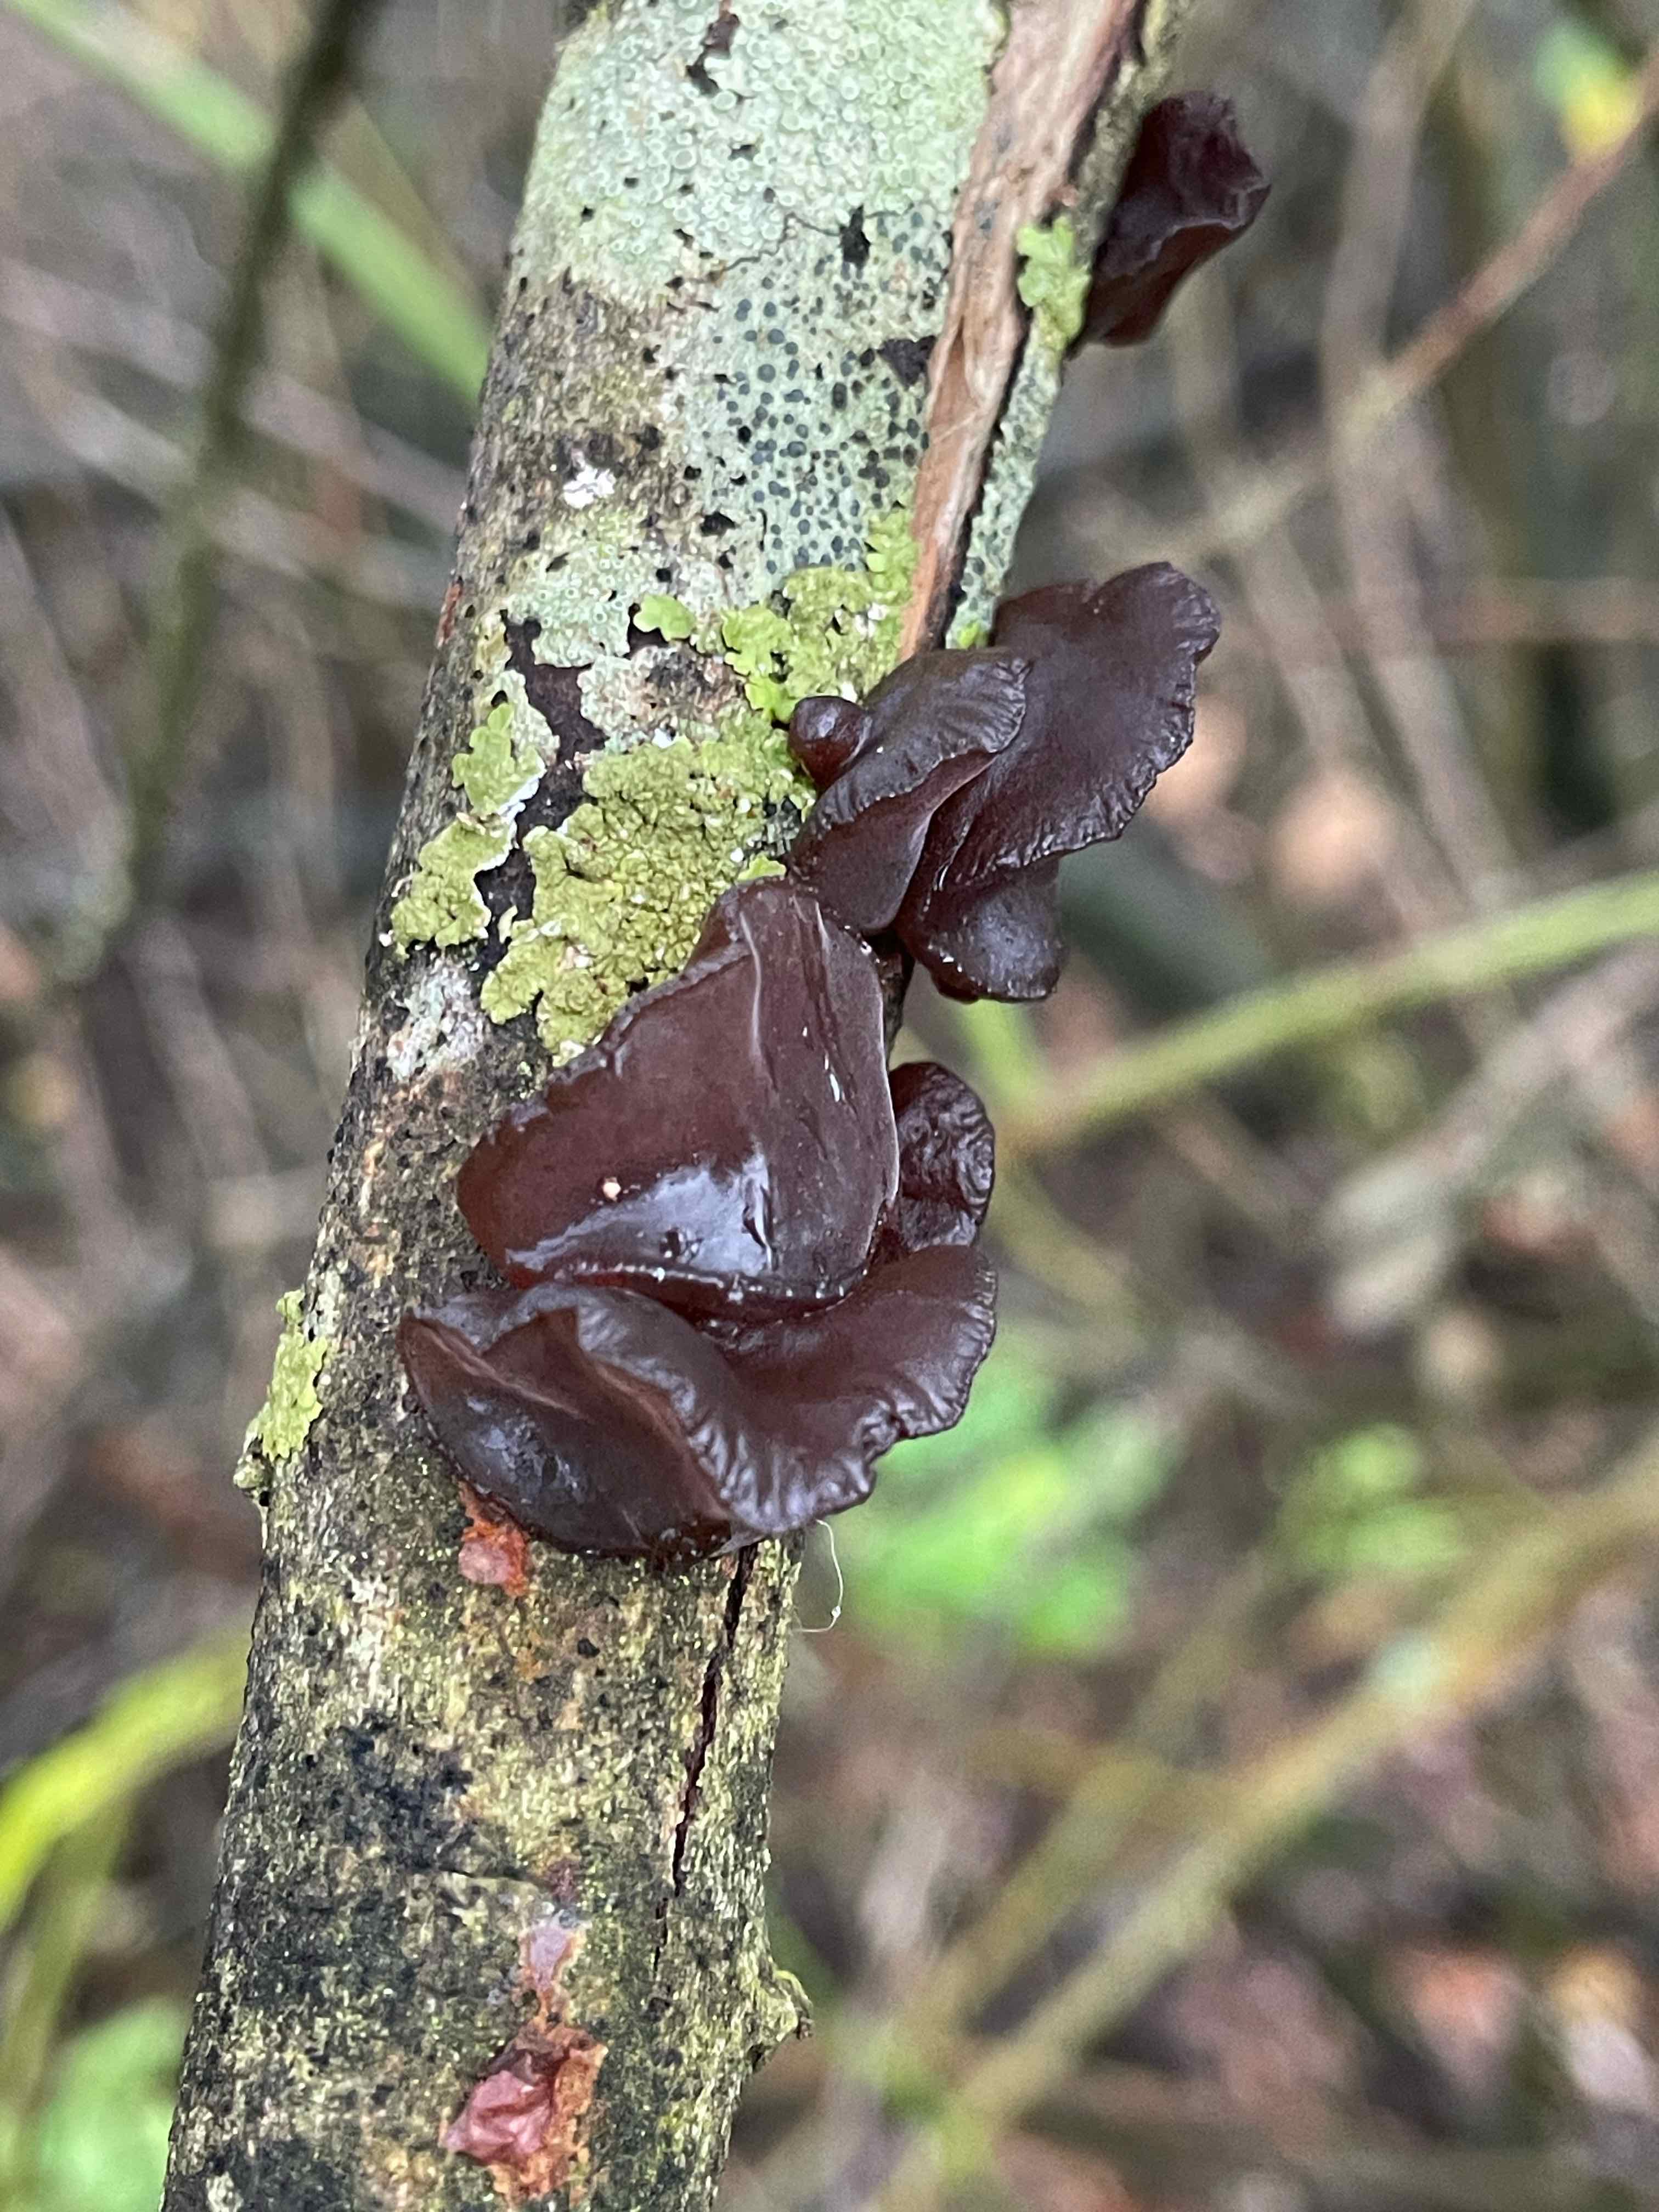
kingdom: Fungi
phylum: Basidiomycota
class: Agaricomycetes
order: Auriculariales
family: Auriculariaceae
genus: Exidia
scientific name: Exidia recisa
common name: pile-bævretop
